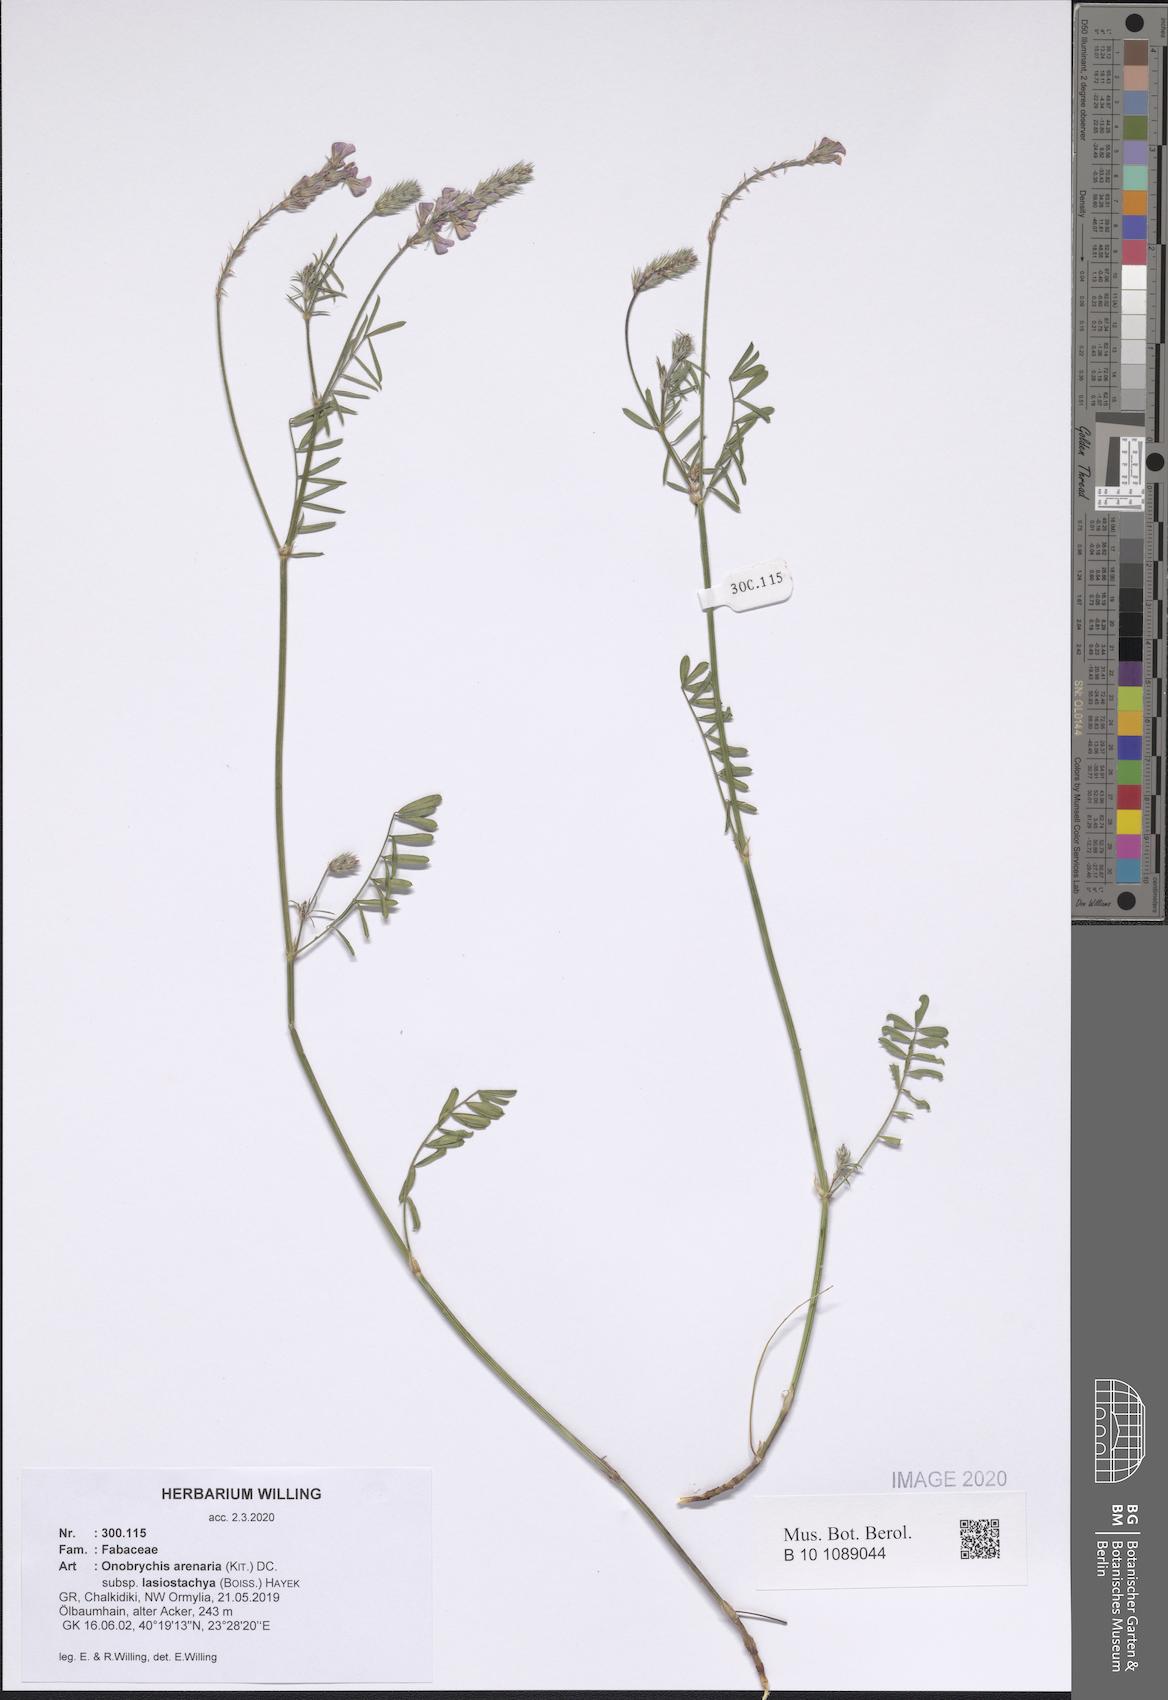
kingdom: Plantae
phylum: Tracheophyta
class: Magnoliopsida
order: Fabales
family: Fabaceae
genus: Onobrychis
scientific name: Onobrychis arenaria
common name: Sand esparcet
